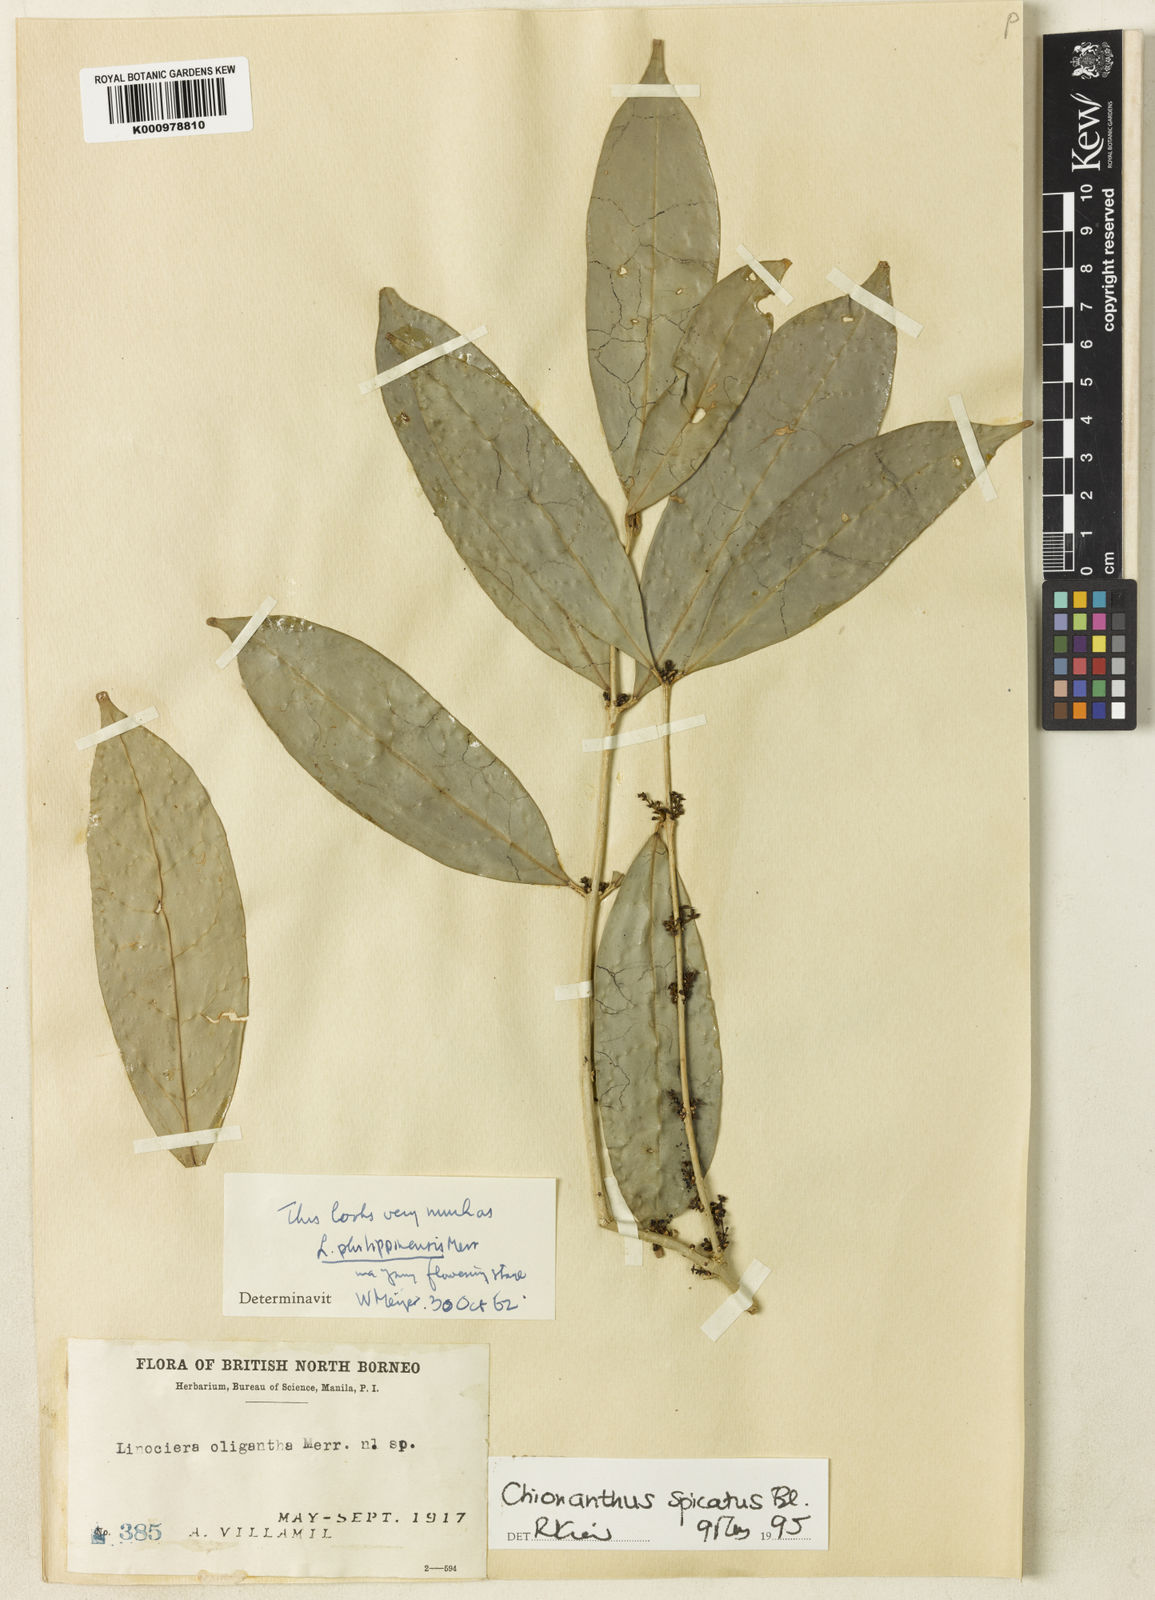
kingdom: Plantae
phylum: Tracheophyta
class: Magnoliopsida
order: Lamiales
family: Oleaceae
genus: Chionanthus
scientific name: Chionanthus spicatus
